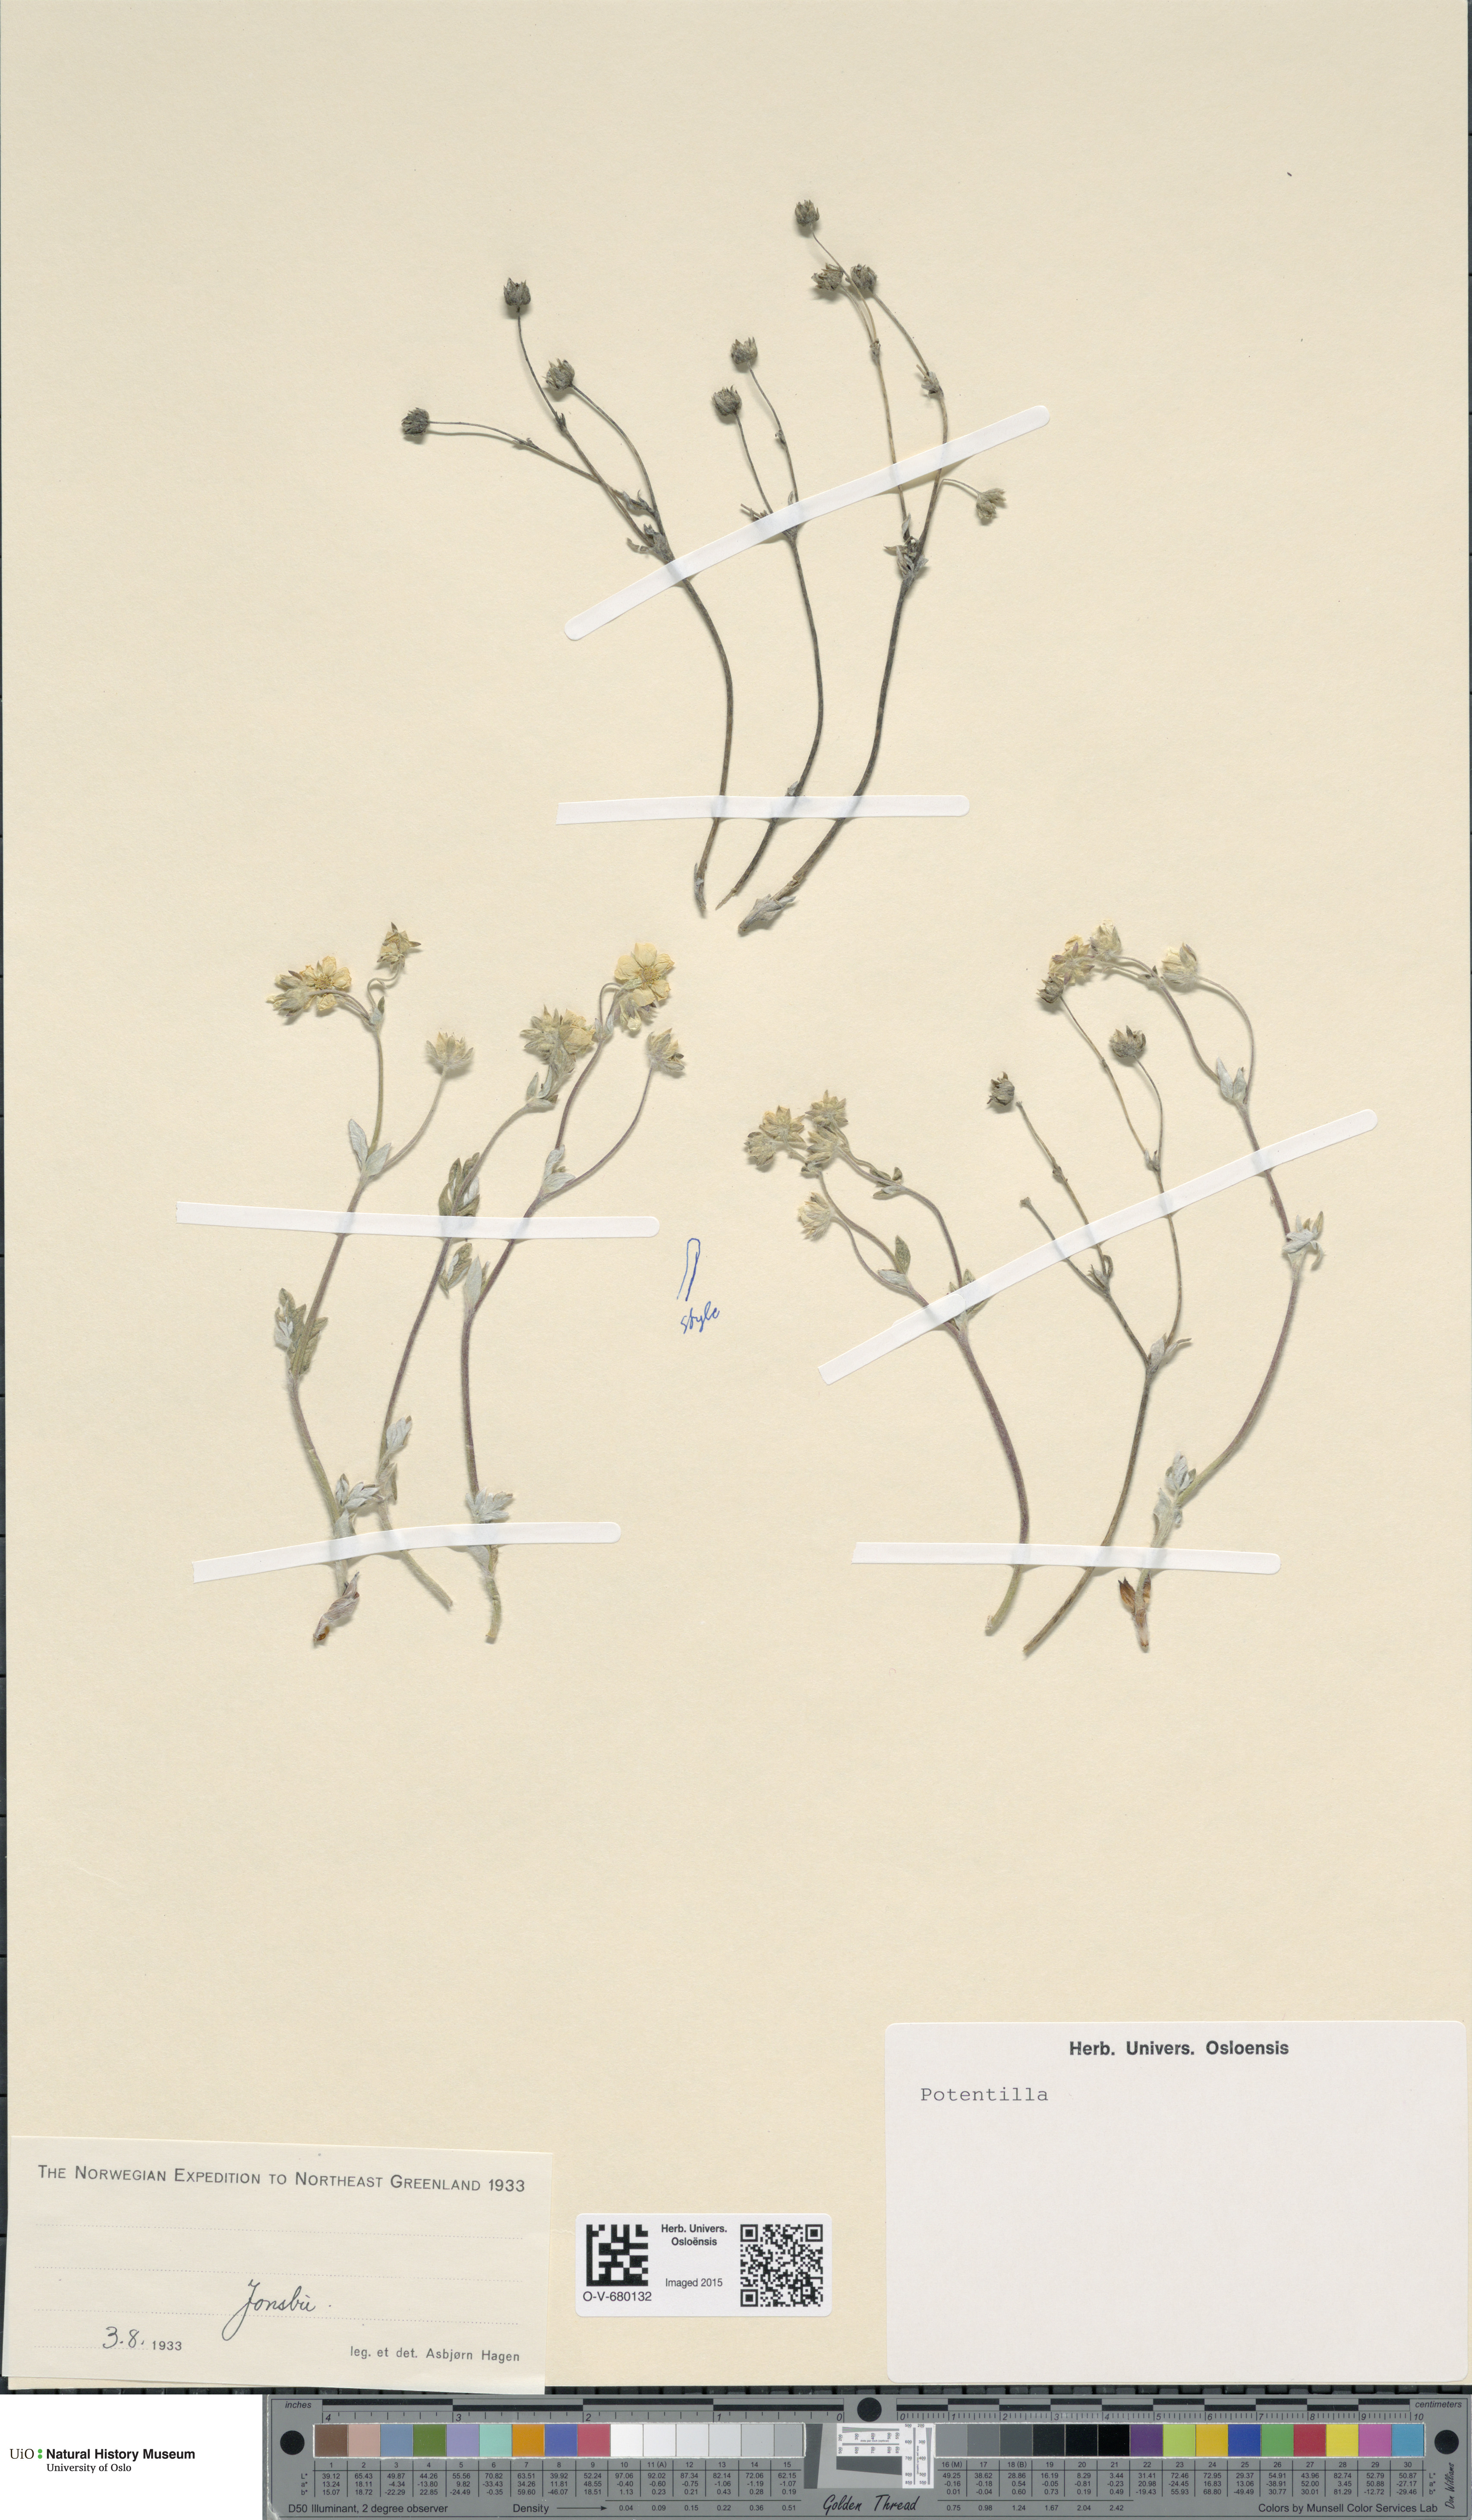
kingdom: Plantae
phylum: Tracheophyta
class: Magnoliopsida
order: Rosales
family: Rosaceae
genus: Potentilla
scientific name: Potentilla
